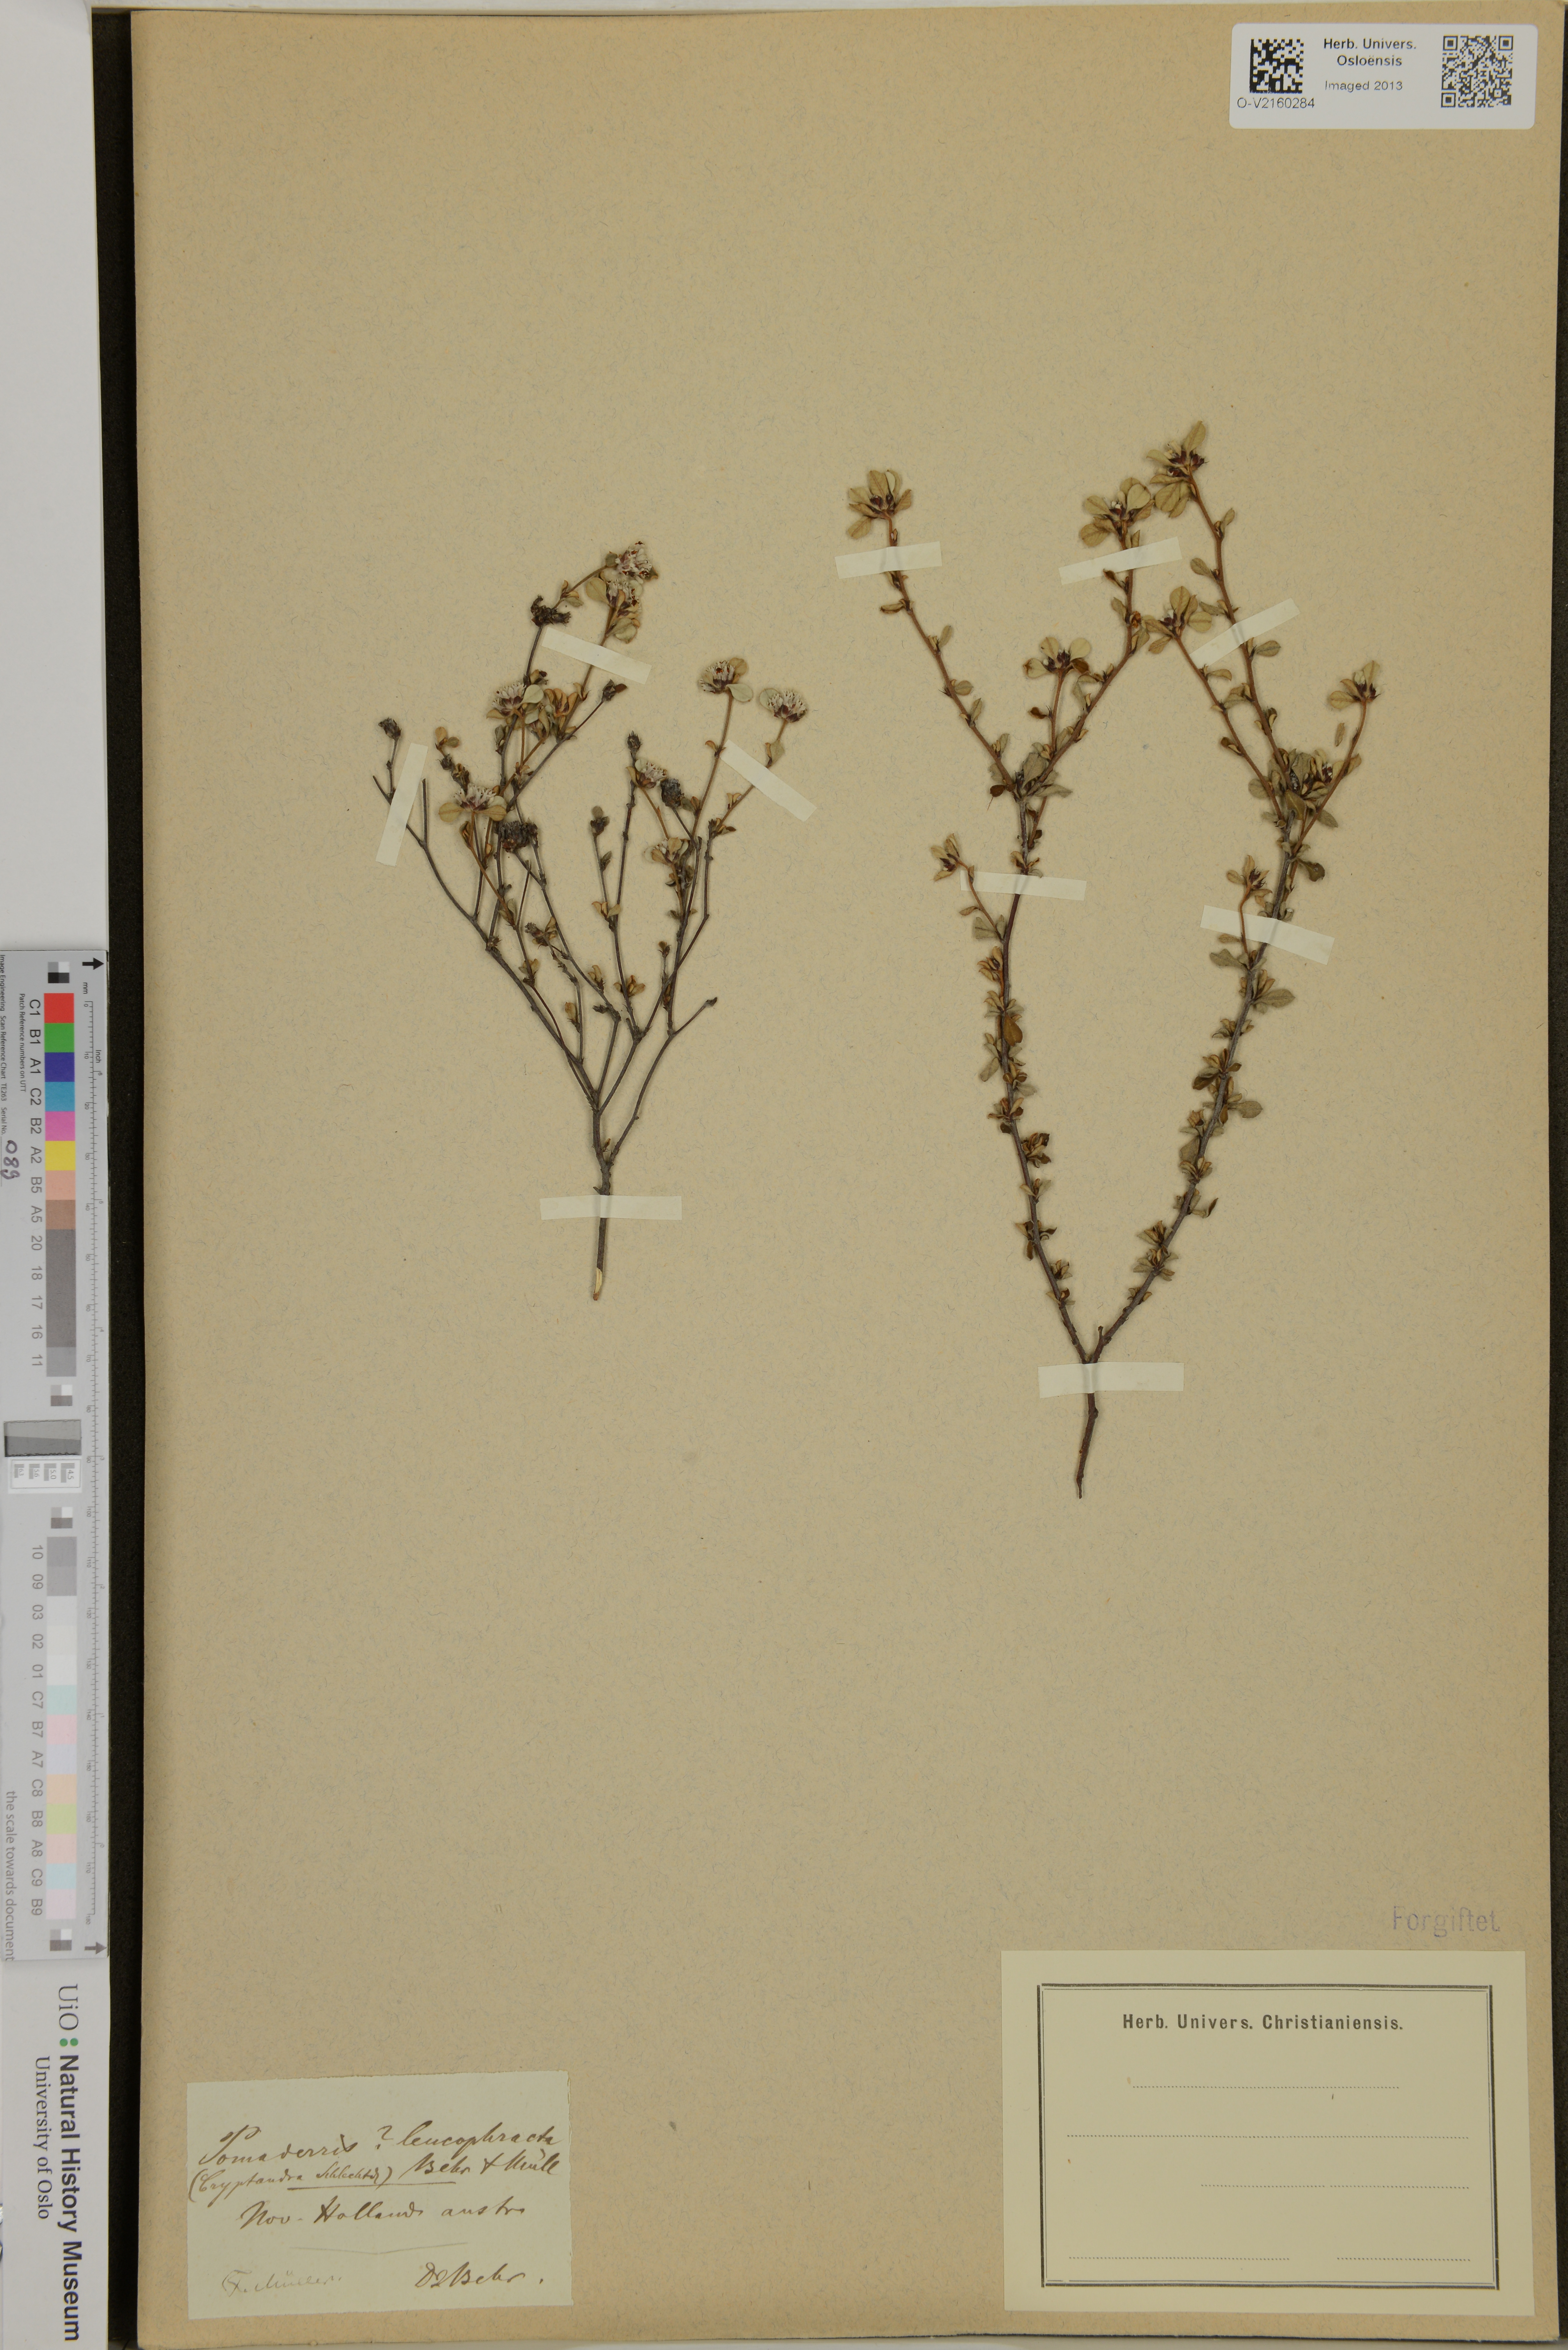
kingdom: Plantae
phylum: Tracheophyta
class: Magnoliopsida
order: Rosales
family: Rhamnaceae
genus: Cryptandra
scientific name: Cryptandra leucophracta
